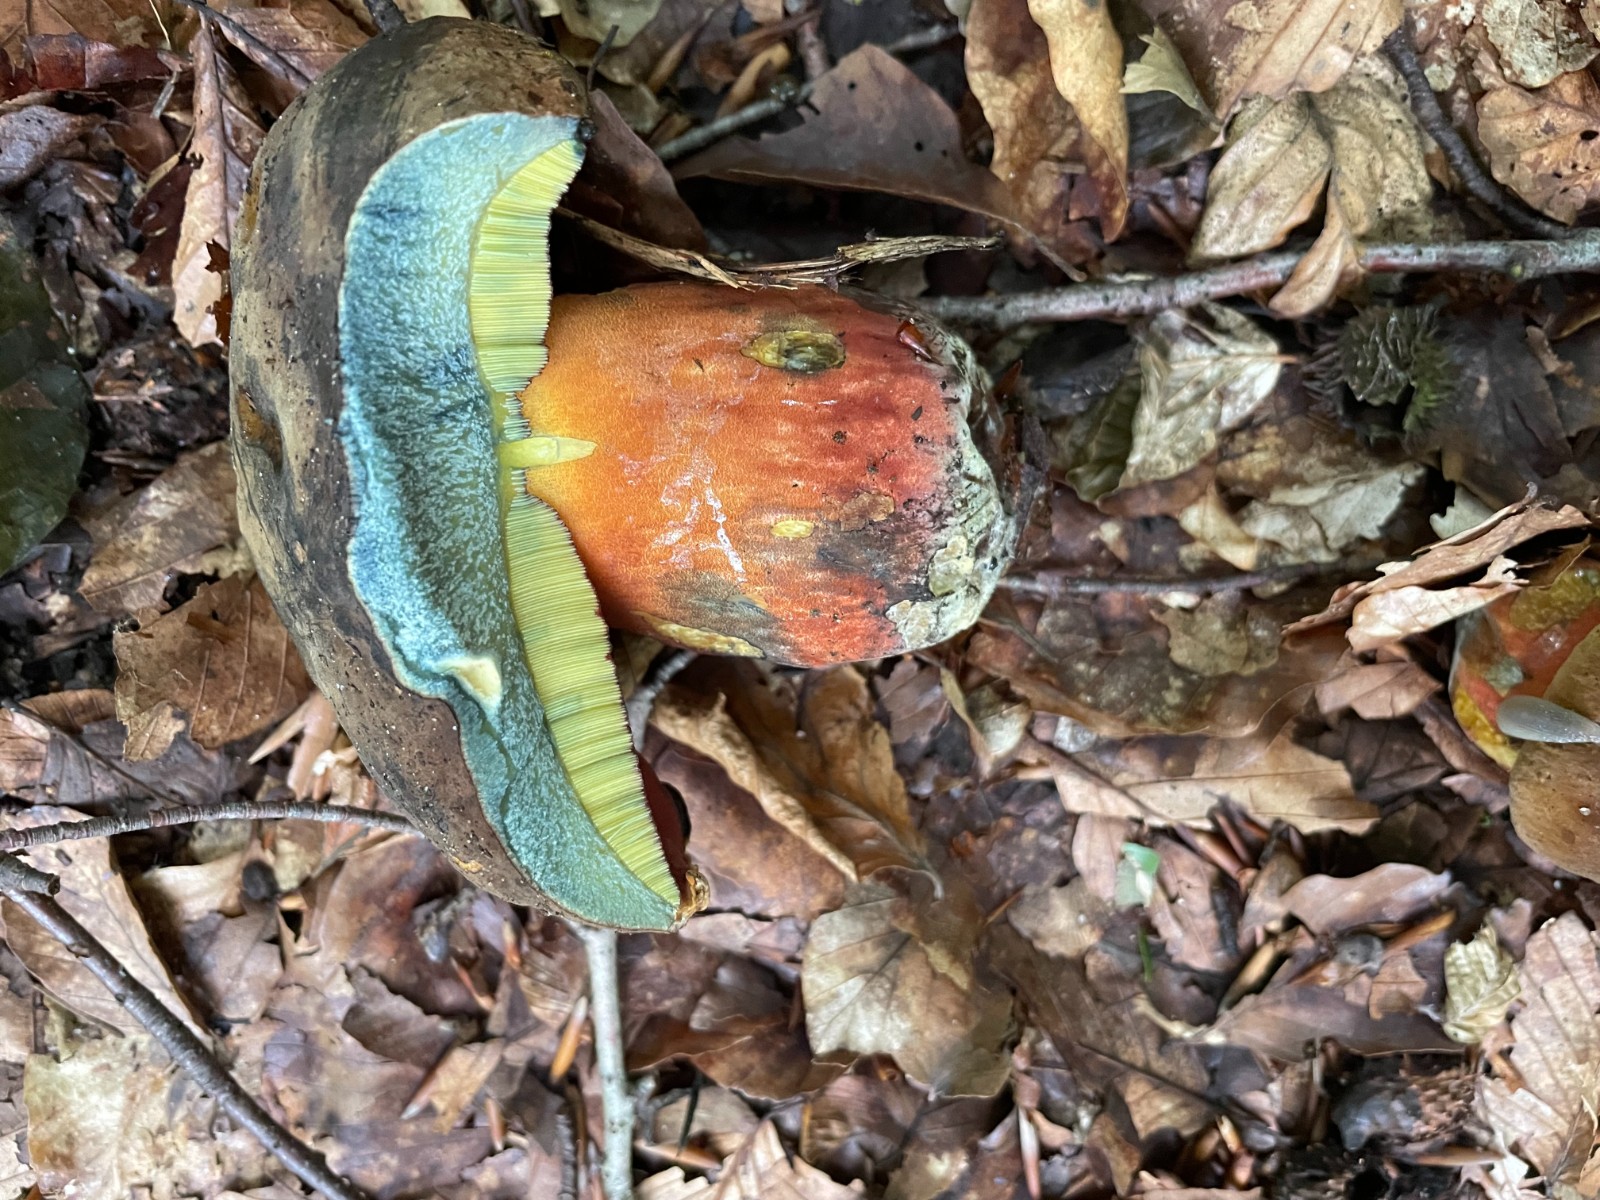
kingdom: Fungi
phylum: Basidiomycota
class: Agaricomycetes
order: Boletales
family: Boletaceae
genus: Neoboletus
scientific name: Neoboletus erythropus
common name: punktstokket indigorørhat
